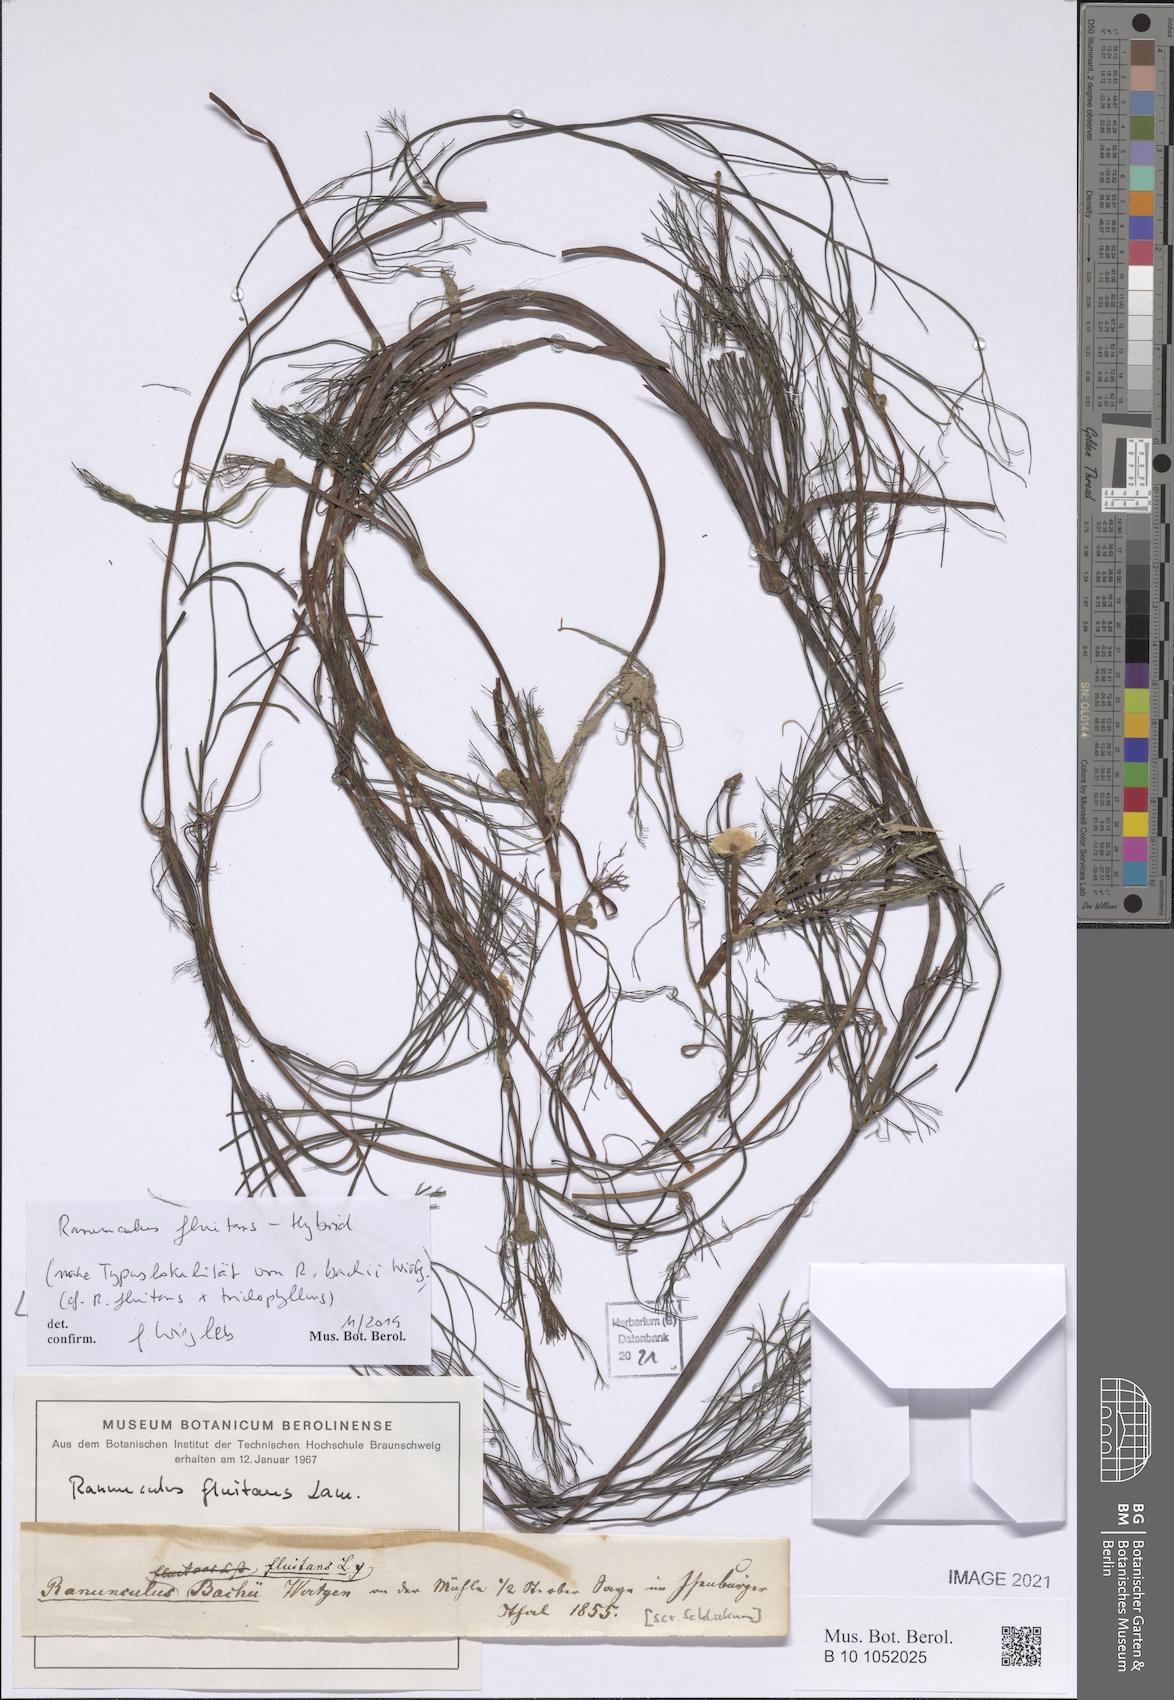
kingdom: Plantae
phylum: Tracheophyta
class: Magnoliopsida
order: Ranunculales
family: Ranunculaceae
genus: Ranunculus
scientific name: Ranunculus fluitans
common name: River water-crowfoot
